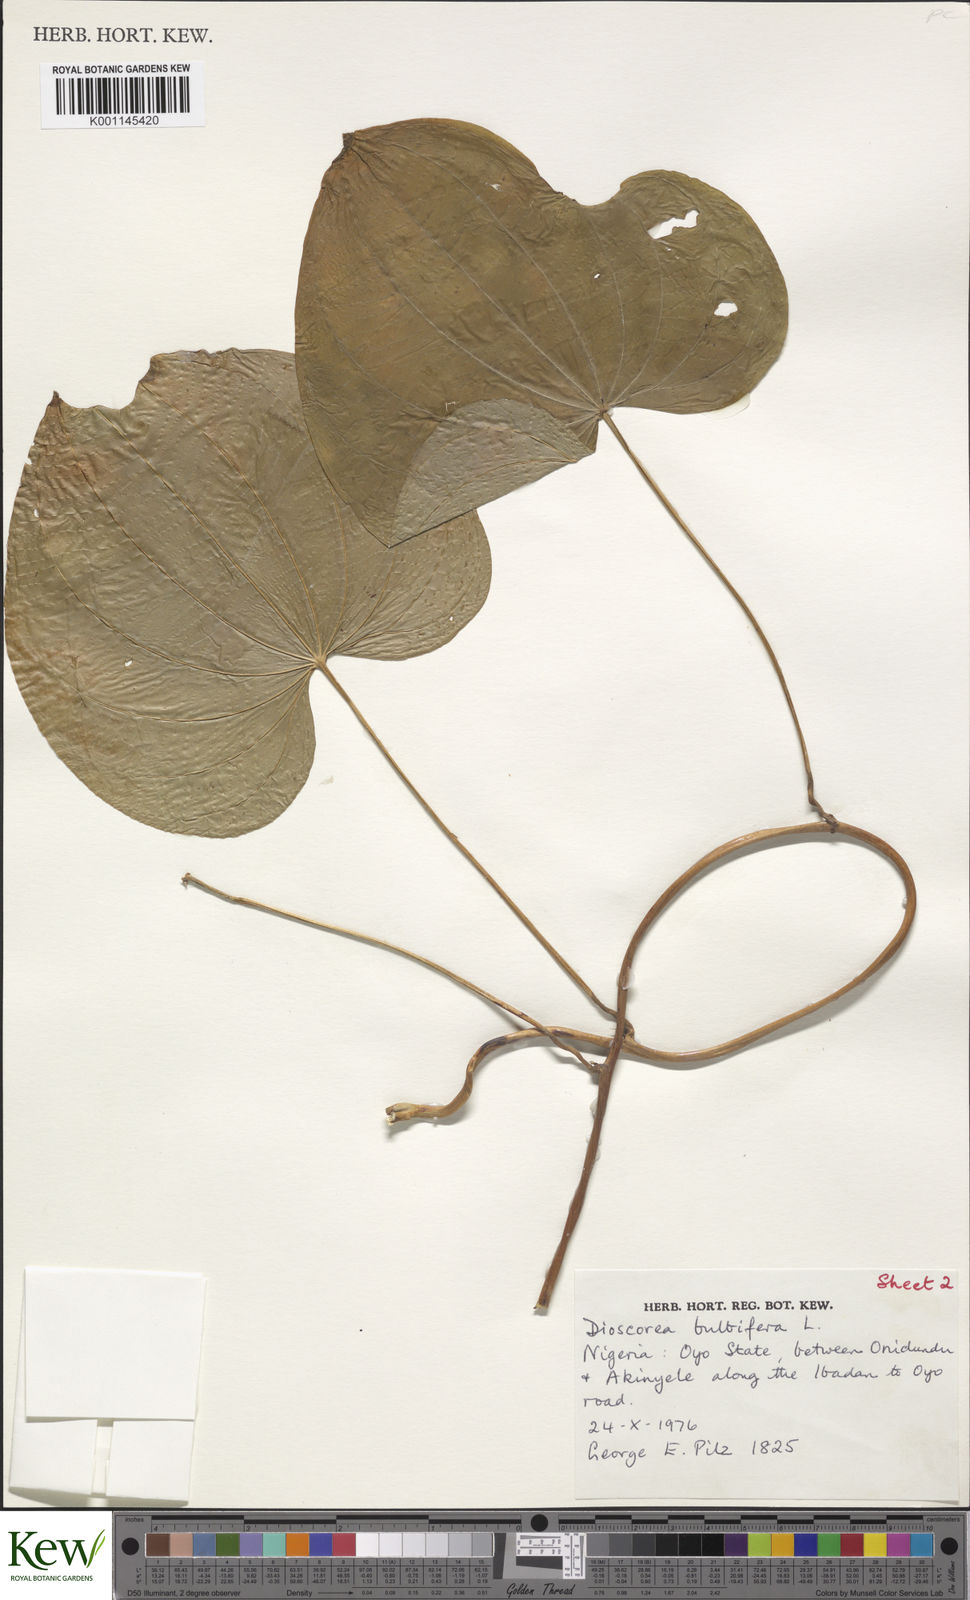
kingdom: Plantae
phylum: Tracheophyta
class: Liliopsida
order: Dioscoreales
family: Dioscoreaceae
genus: Dioscorea
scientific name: Dioscorea bulbifera
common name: Air yam
